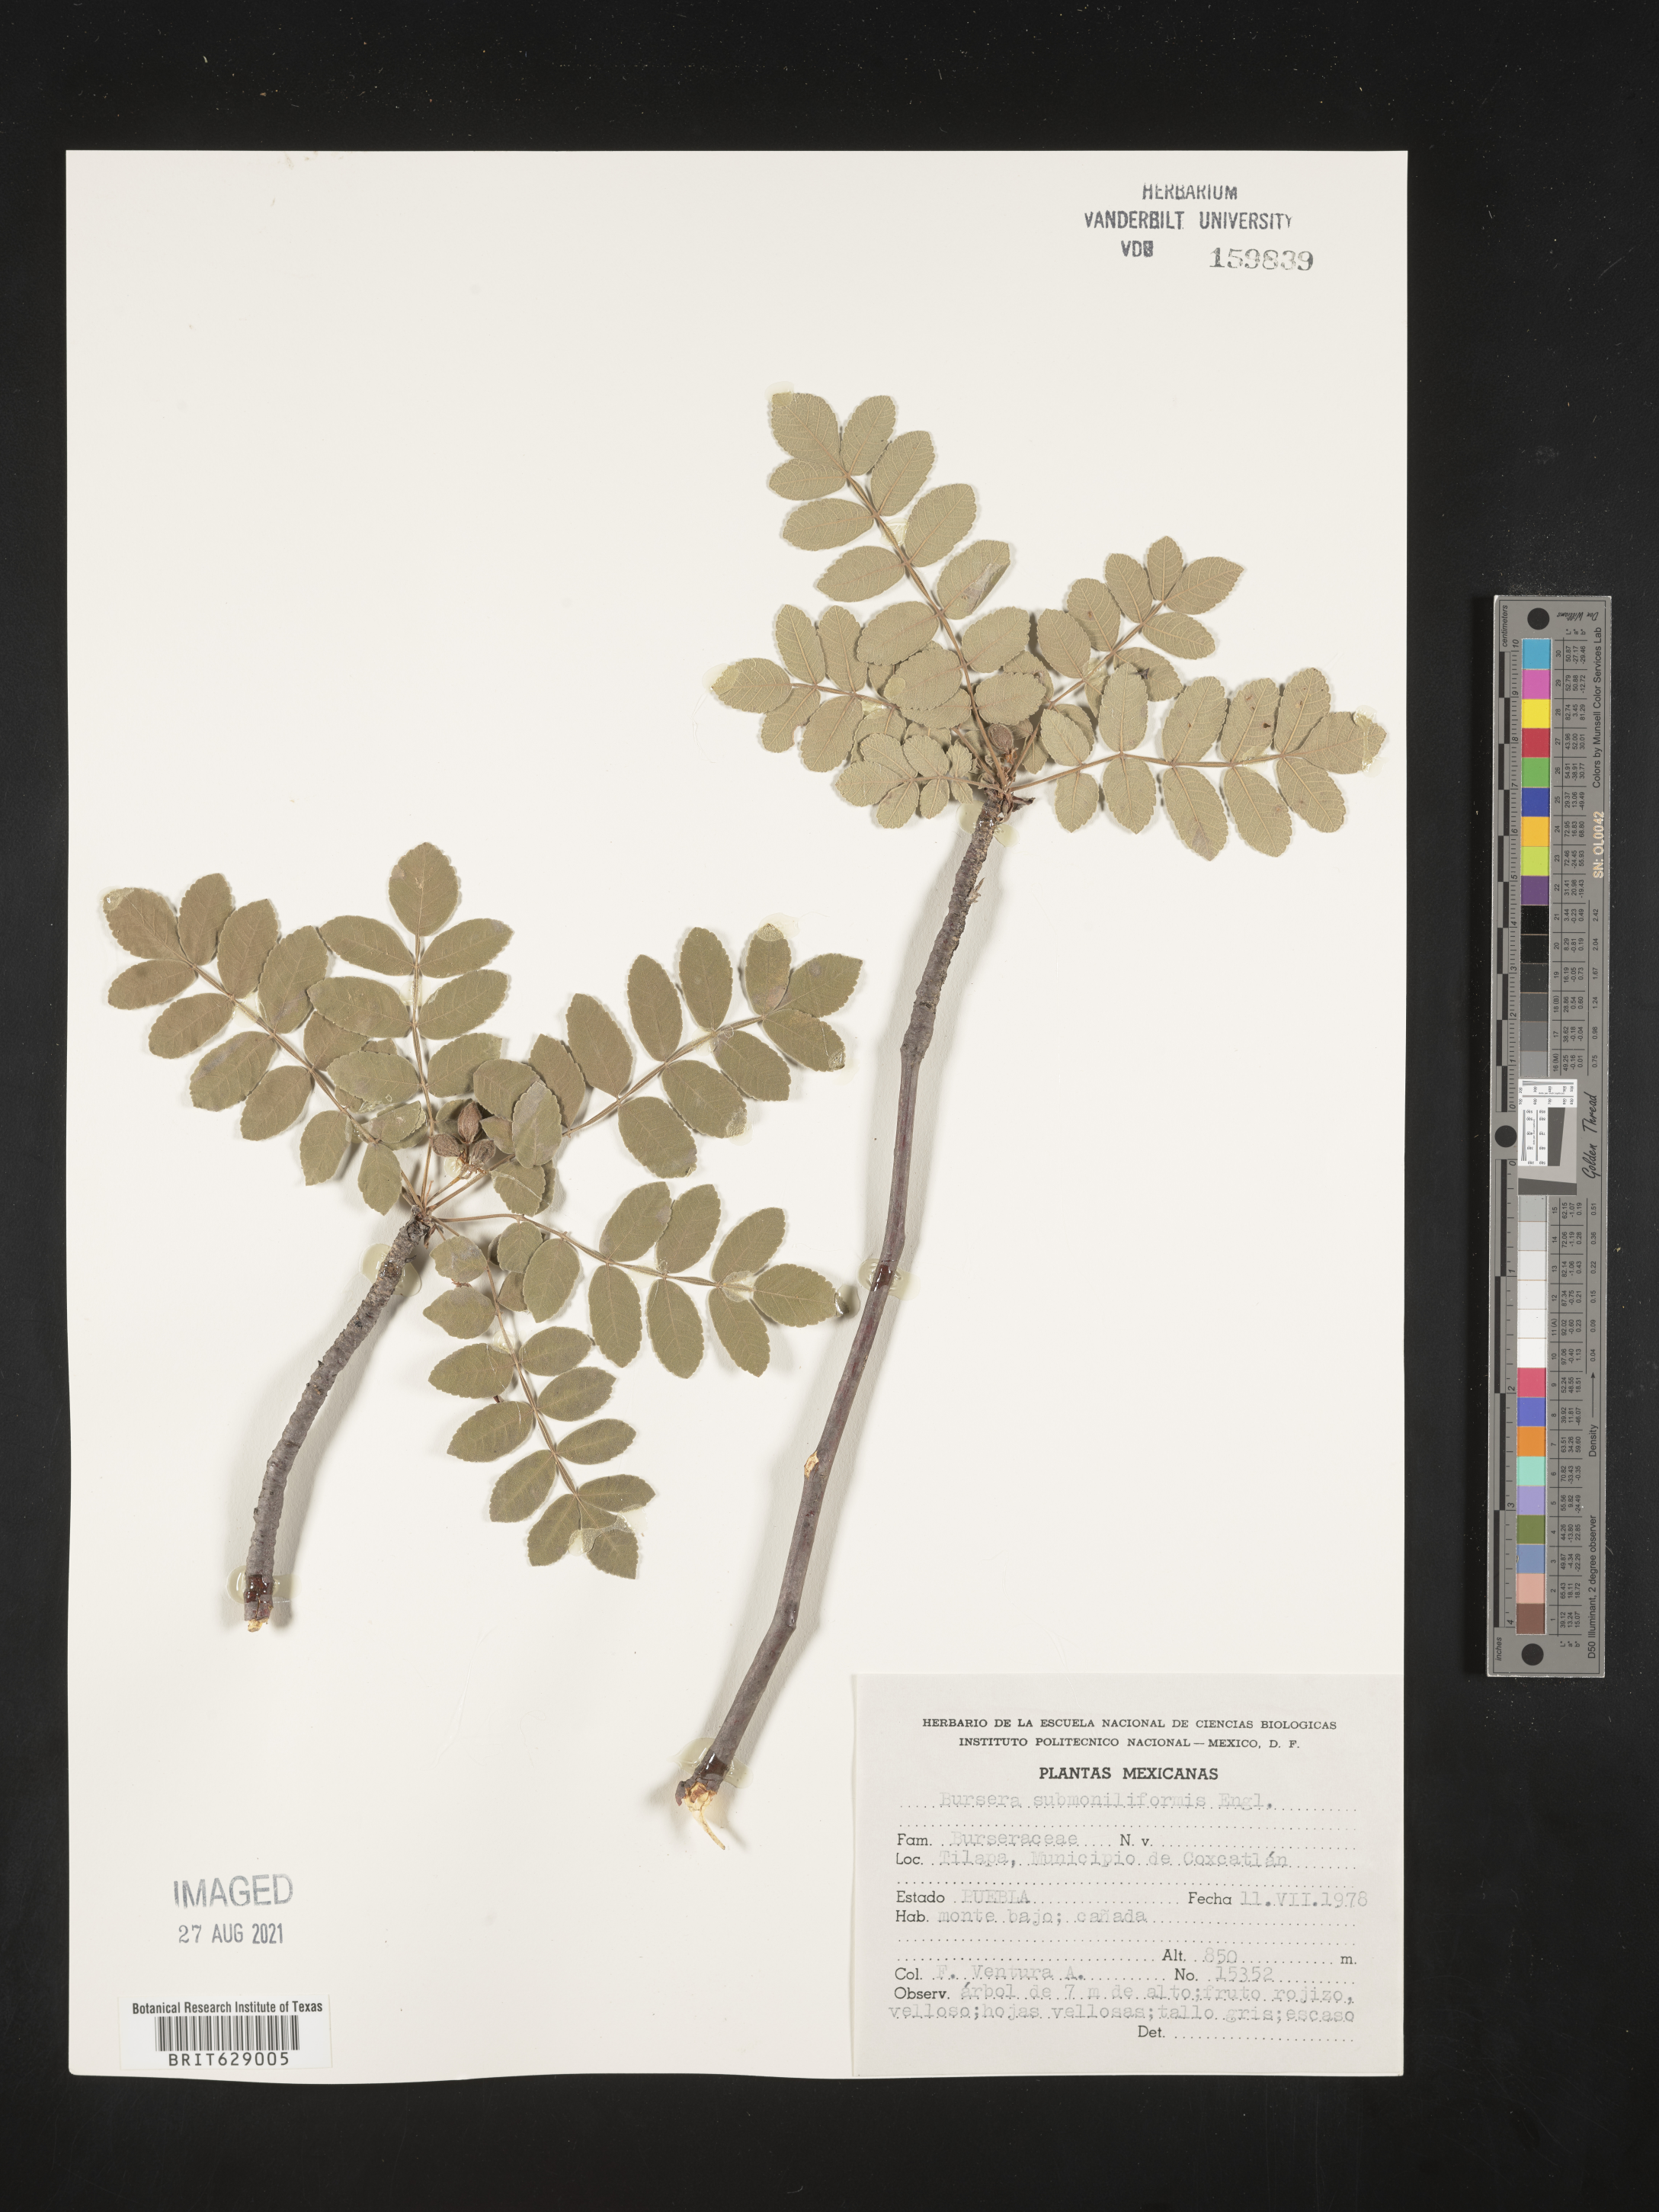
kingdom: Plantae
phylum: Tracheophyta
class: Magnoliopsida
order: Sapindales
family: Burseraceae
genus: Bursera
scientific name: Bursera
